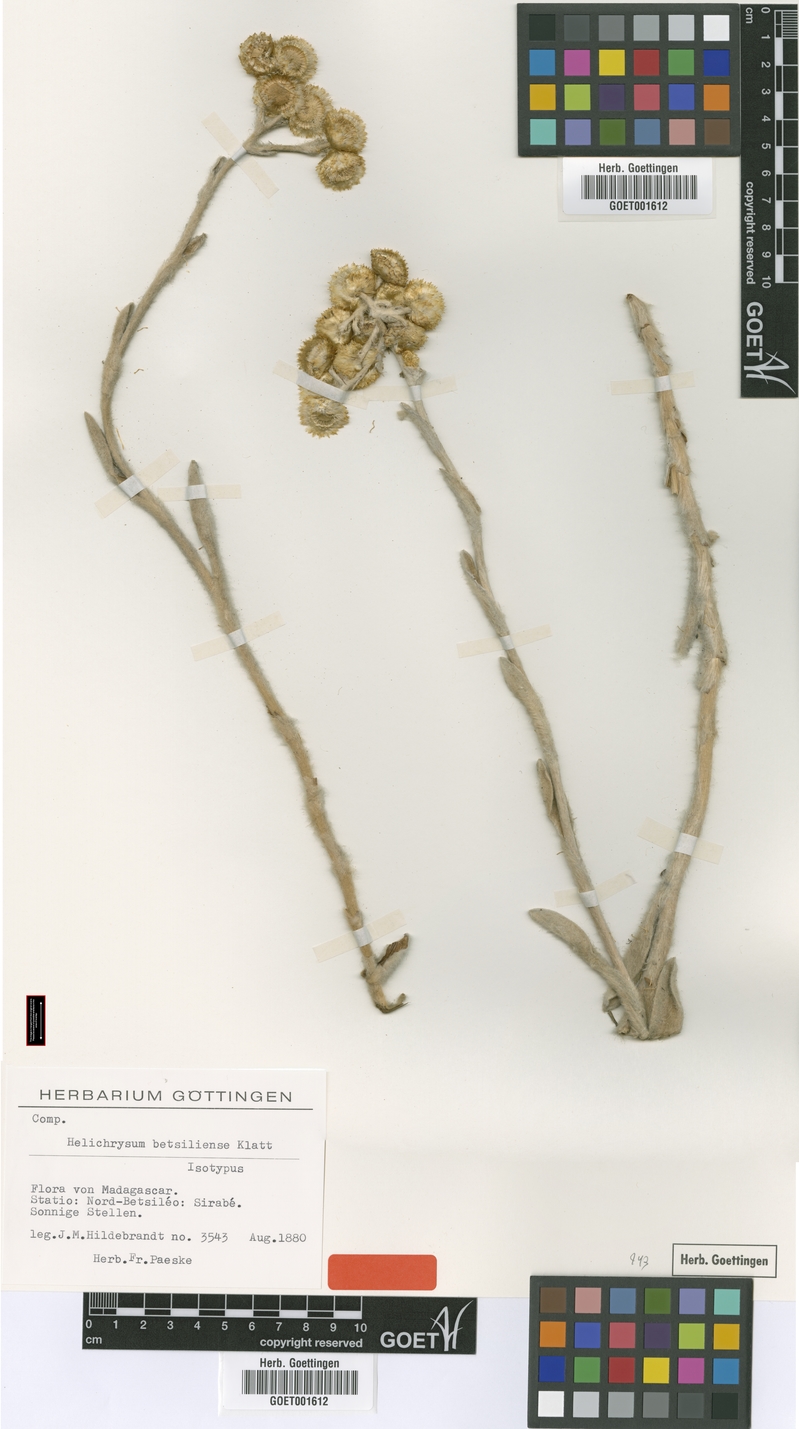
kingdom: Plantae
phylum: Tracheophyta
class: Magnoliopsida
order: Asterales
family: Asteraceae
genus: Helichrysum
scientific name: Helichrysum betsiliense
